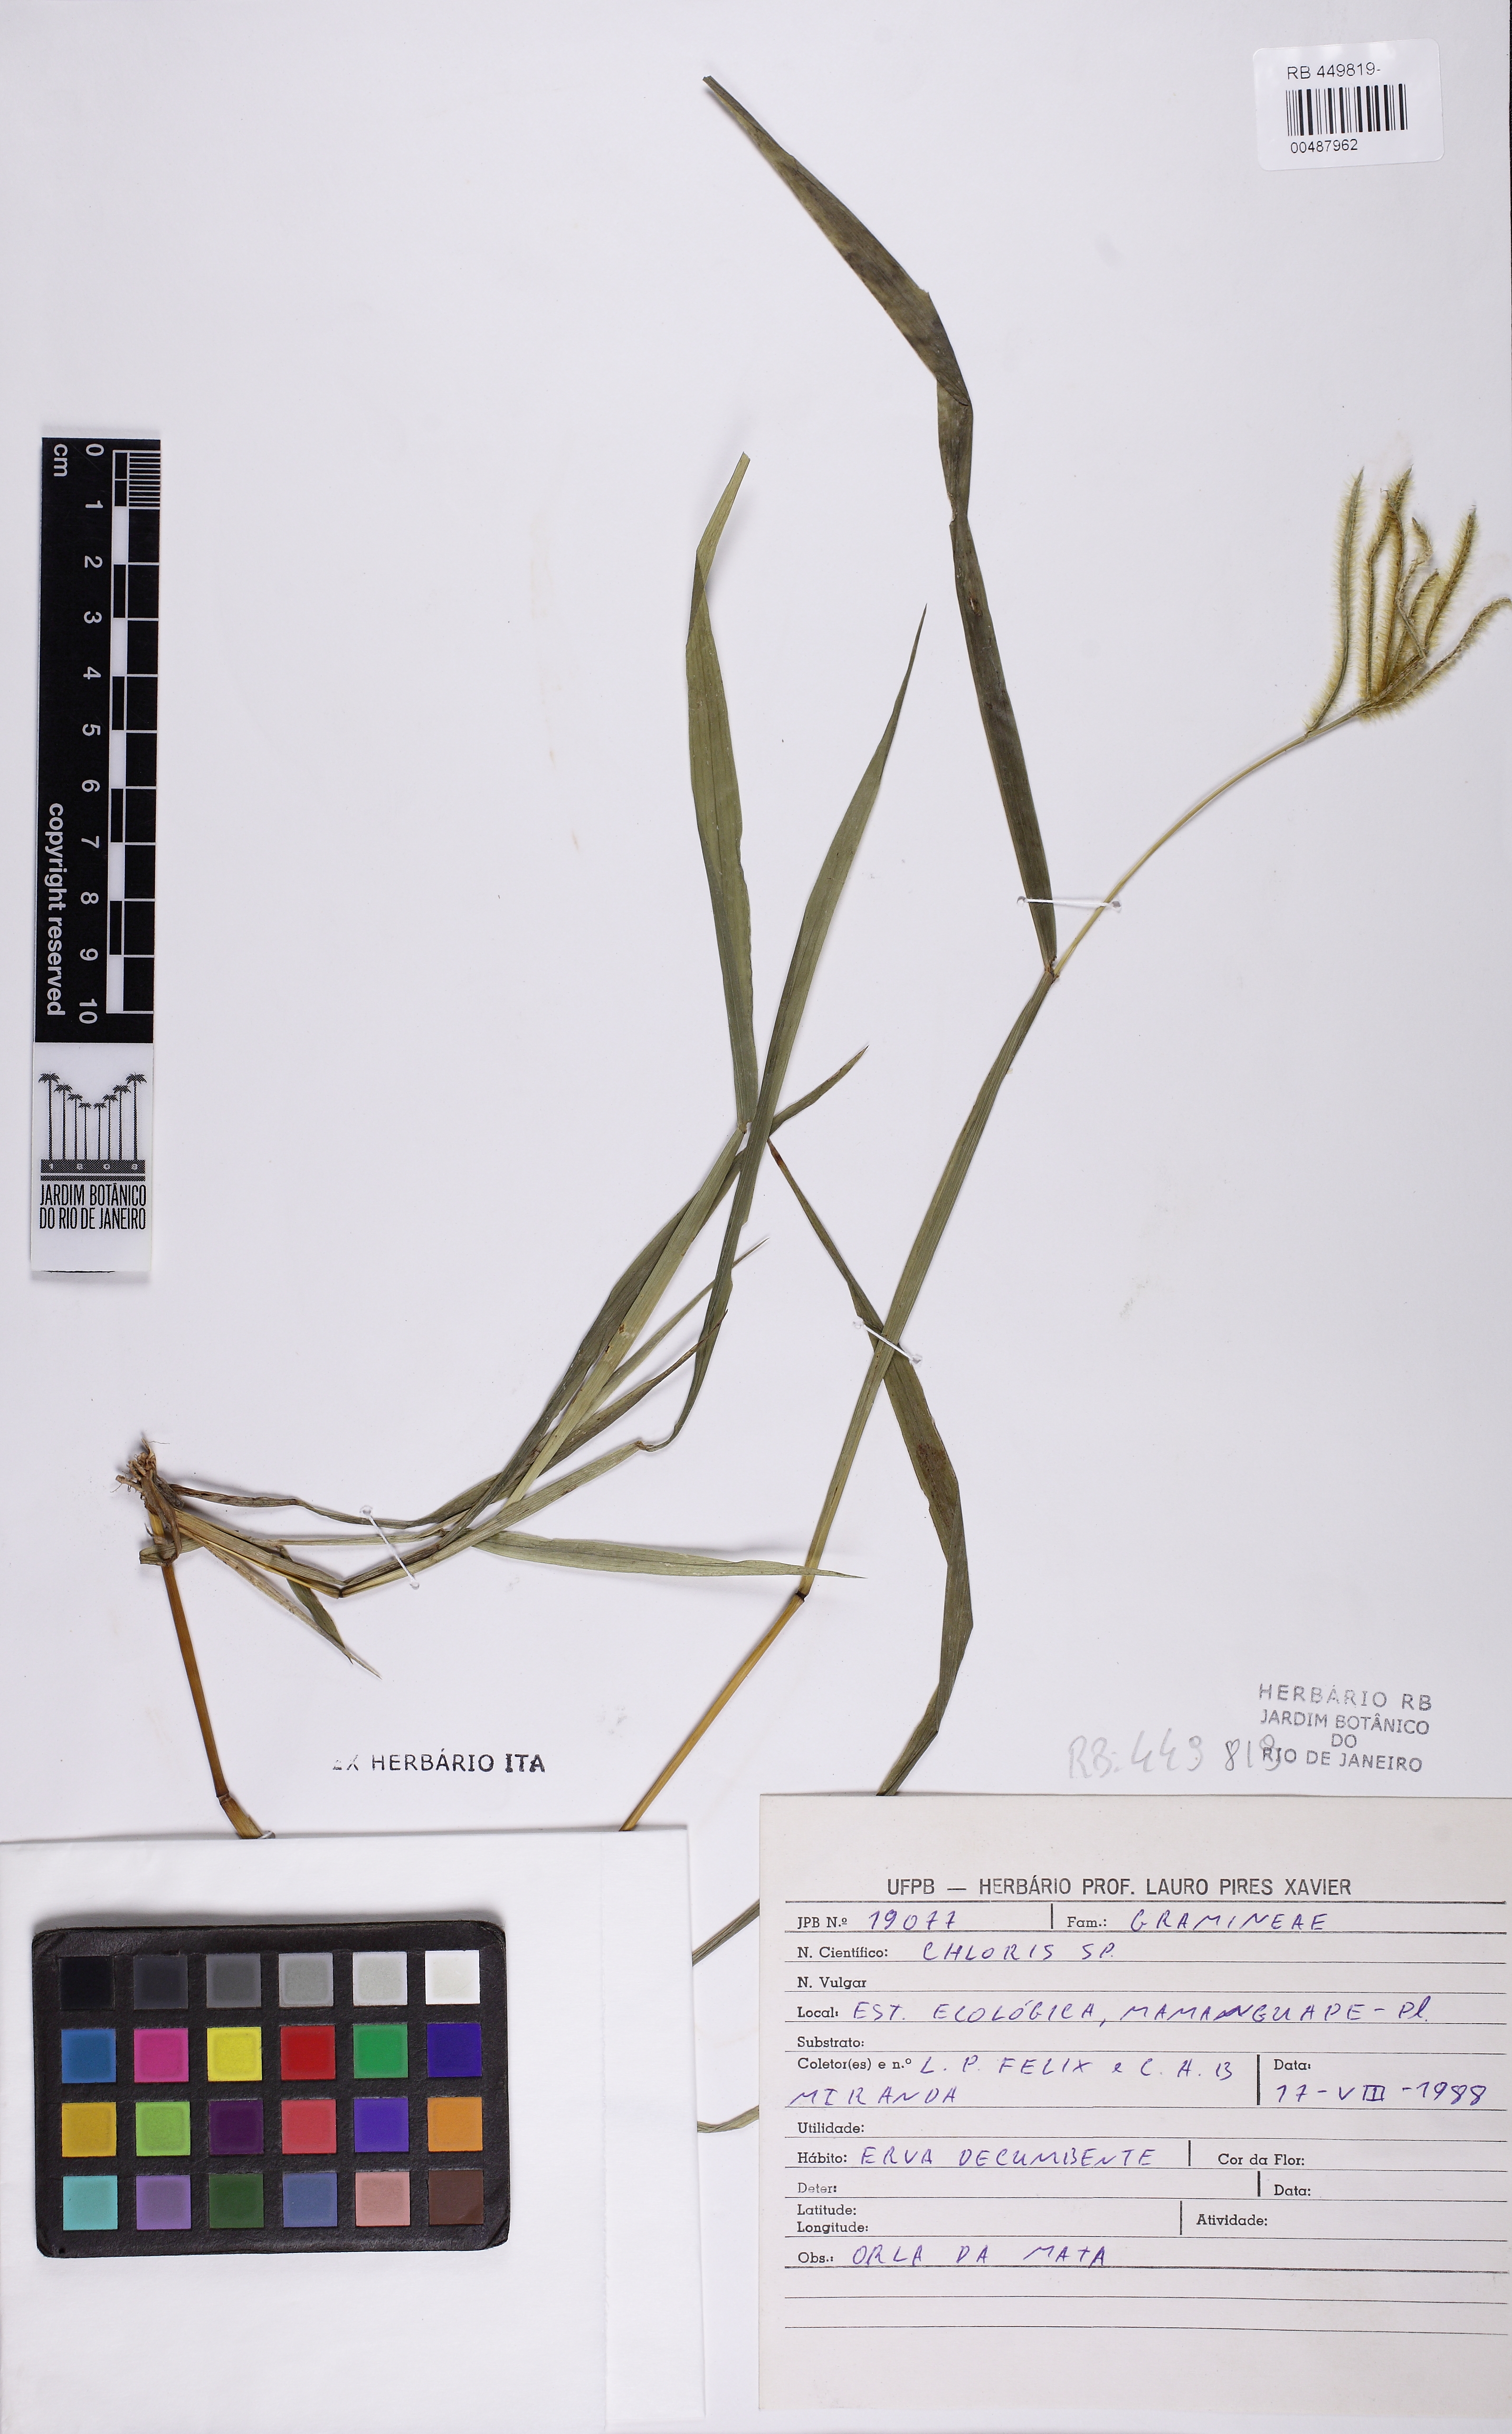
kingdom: Plantae
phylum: Tracheophyta
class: Liliopsida
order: Poales
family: Poaceae
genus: Chloris
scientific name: Chloris
